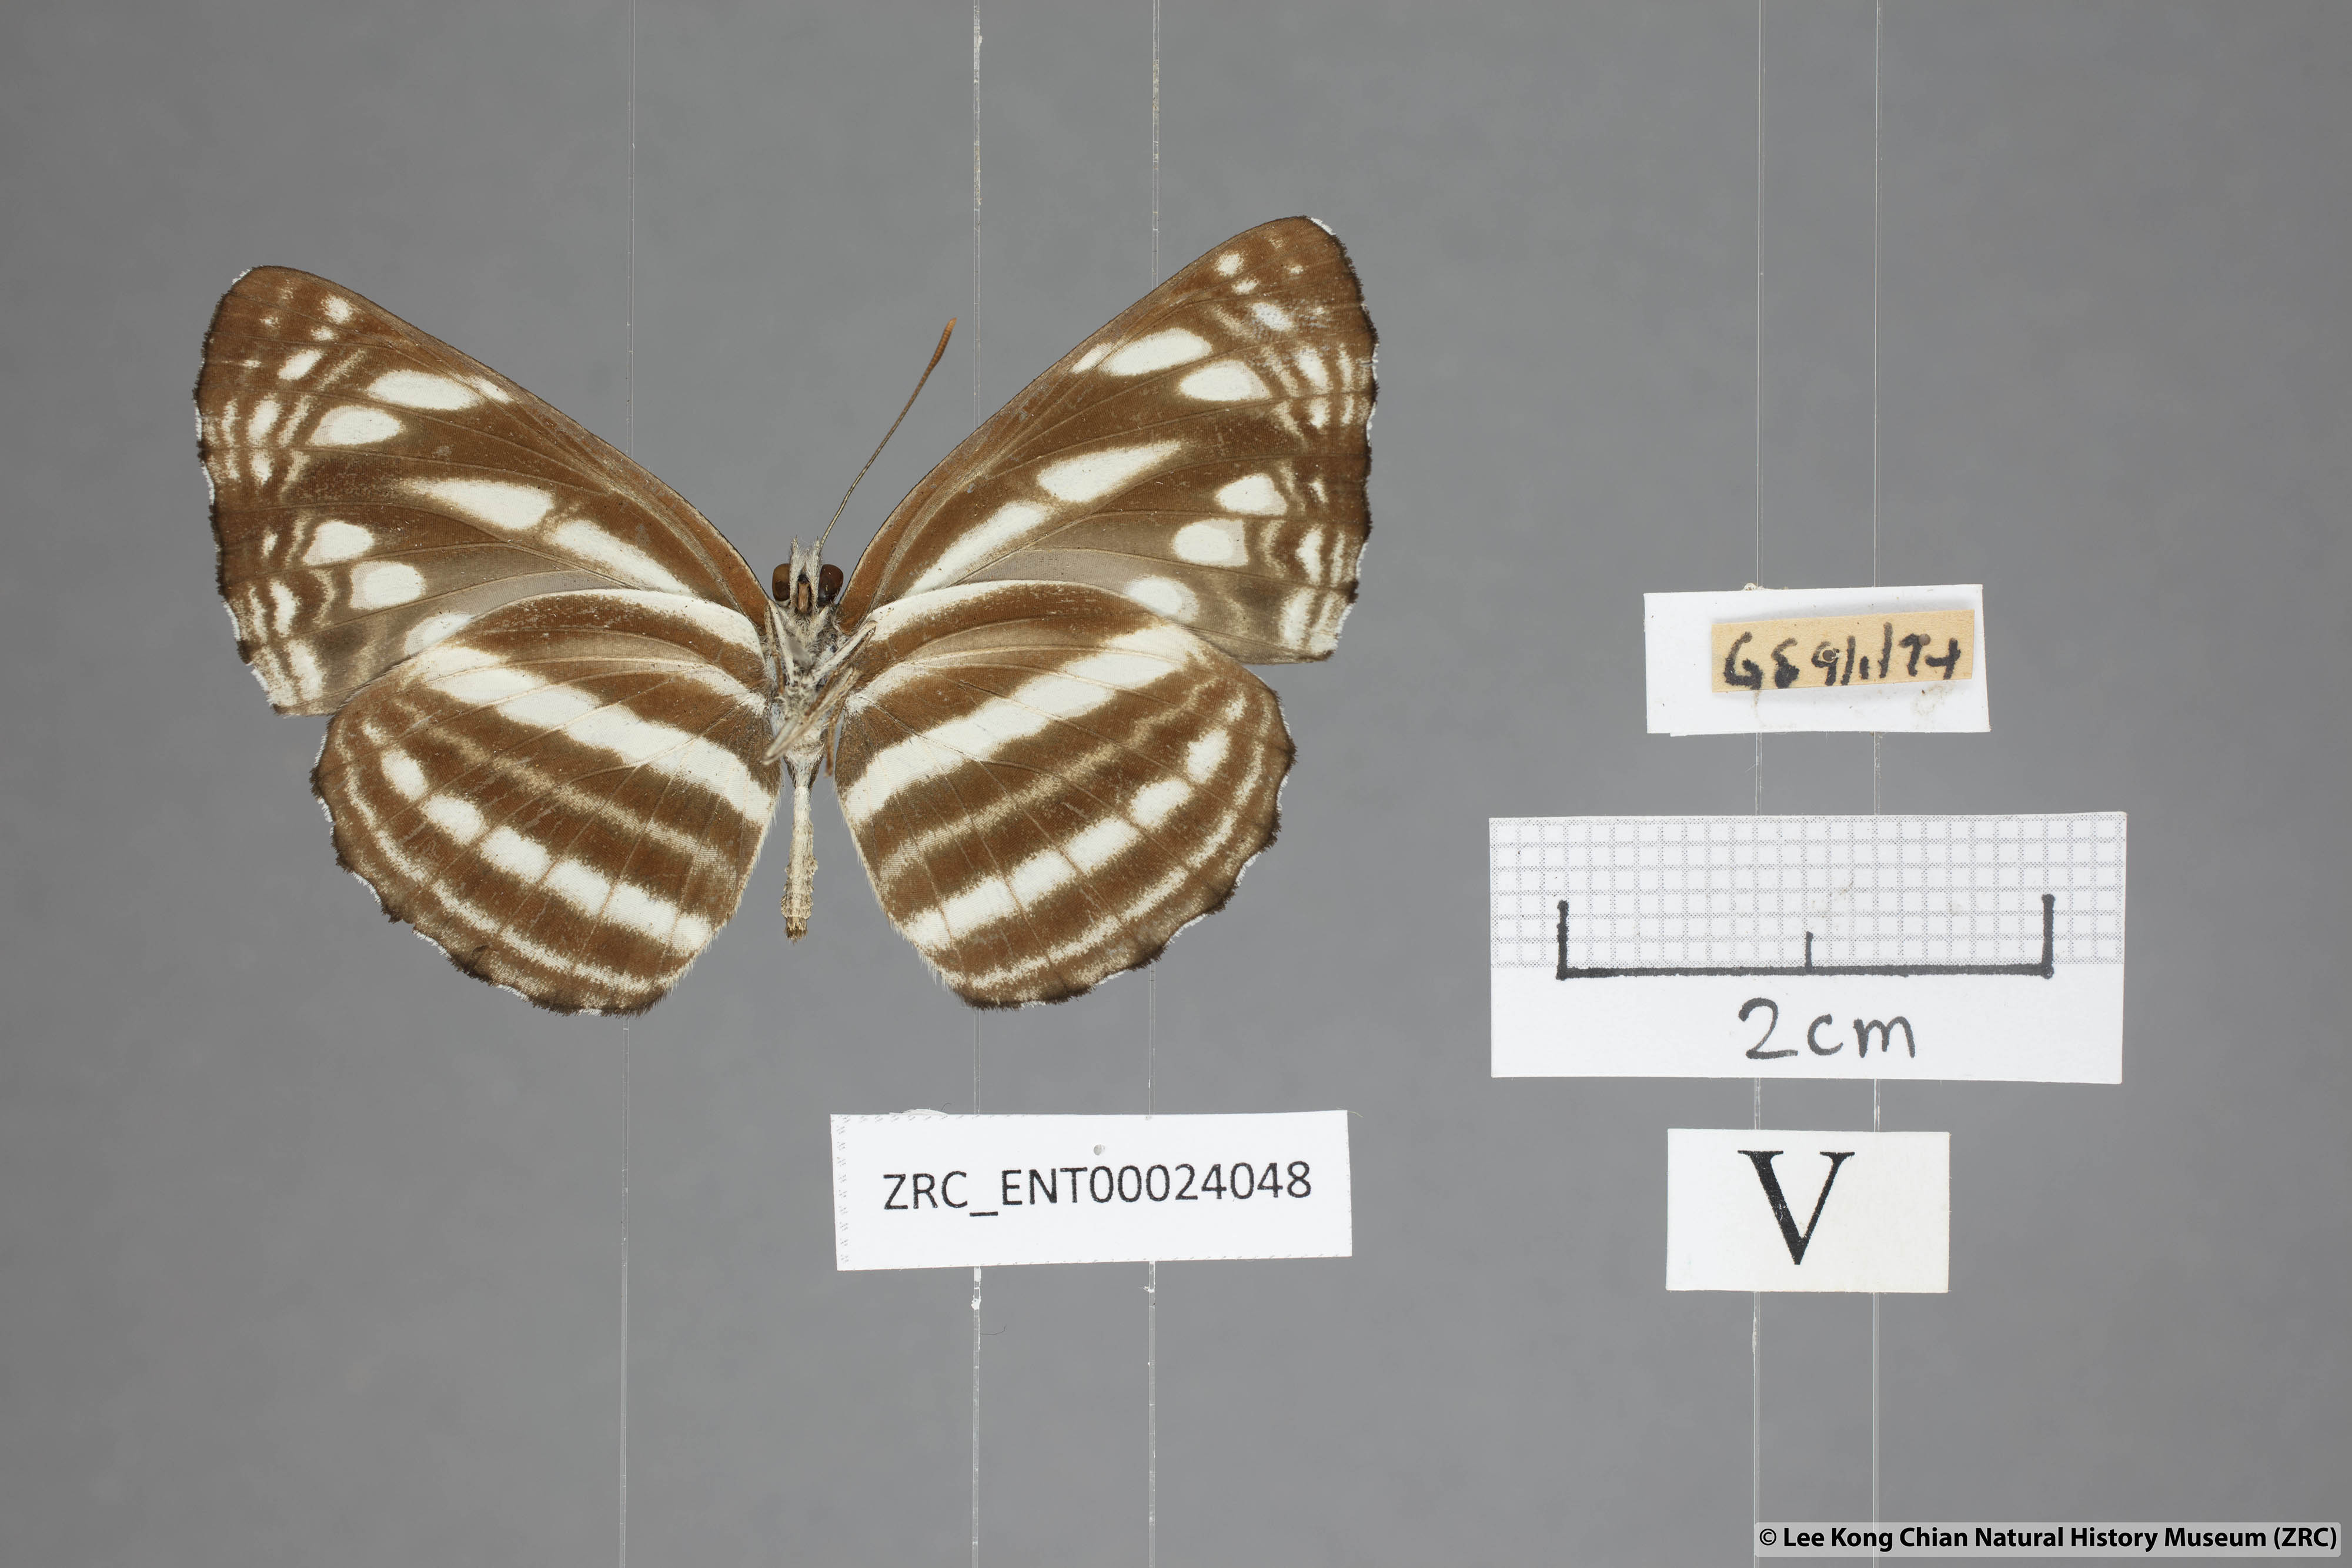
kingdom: Animalia
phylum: Arthropoda
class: Insecta
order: Lepidoptera
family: Nymphalidae
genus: Neptis
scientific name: Neptis nata
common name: Sullied brown sailer
